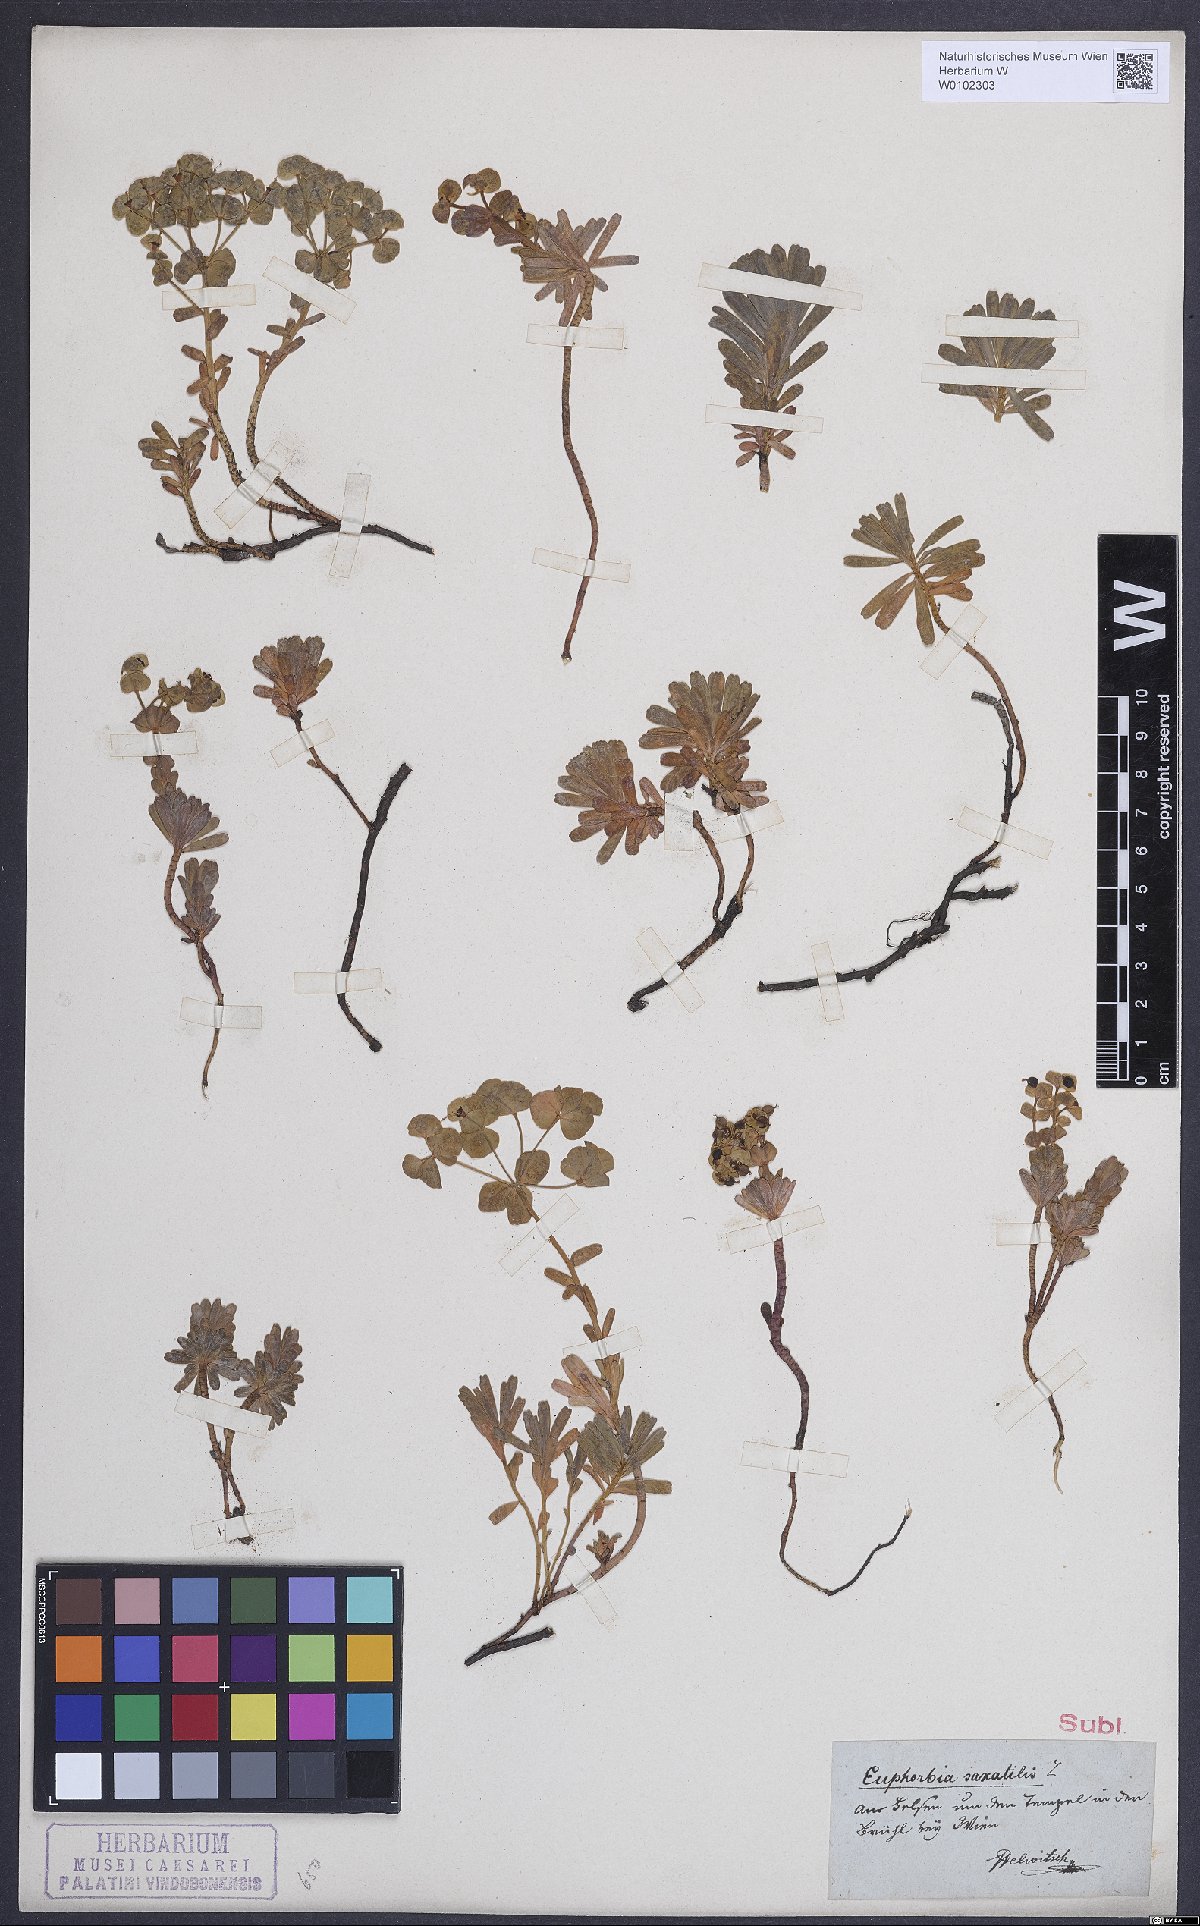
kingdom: Plantae
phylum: Tracheophyta
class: Magnoliopsida
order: Malpighiales
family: Euphorbiaceae
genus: Euphorbia
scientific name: Euphorbia saxatilis
